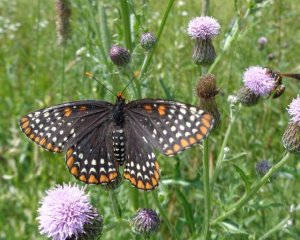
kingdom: Animalia
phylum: Arthropoda
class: Insecta
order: Lepidoptera
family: Nymphalidae
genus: Euphydryas
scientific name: Euphydryas phaeton
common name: Baltimore Checkerspot
